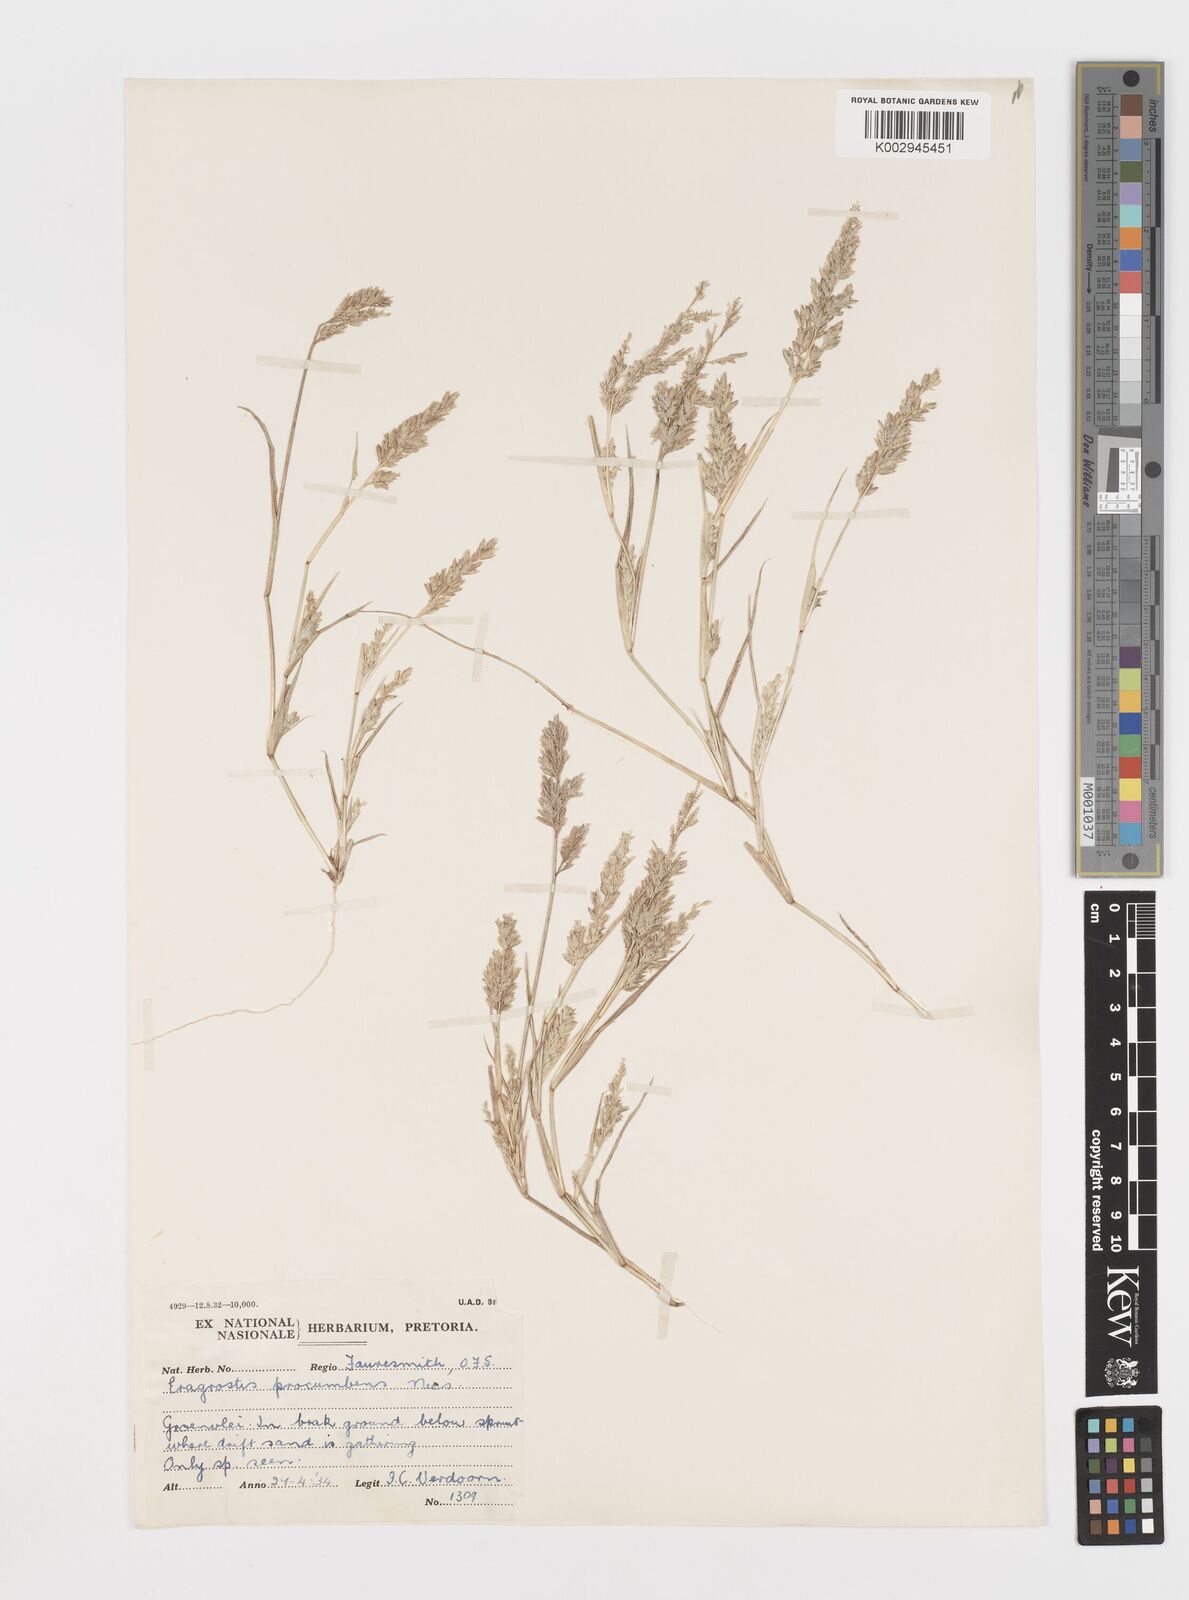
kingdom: Plantae
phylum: Tracheophyta
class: Liliopsida
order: Poales
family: Poaceae
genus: Eragrostis
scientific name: Eragrostis procumbens
